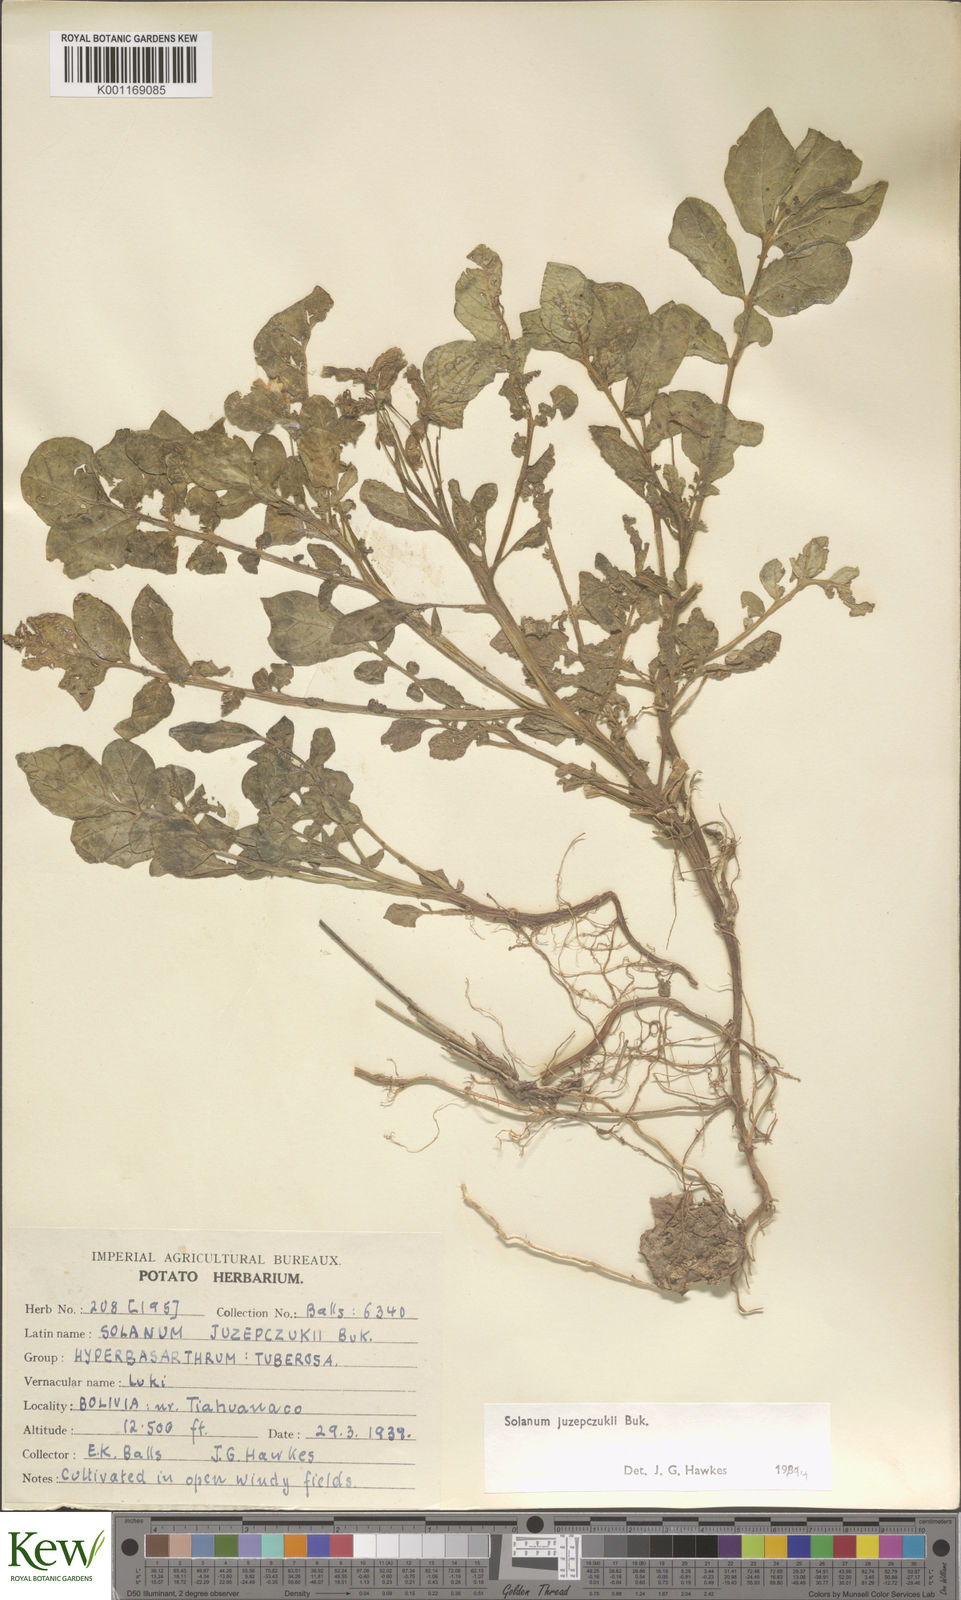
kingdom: Plantae
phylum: Tracheophyta
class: Magnoliopsida
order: Solanales
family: Solanaceae
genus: Solanum
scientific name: Solanum juzepczukii
